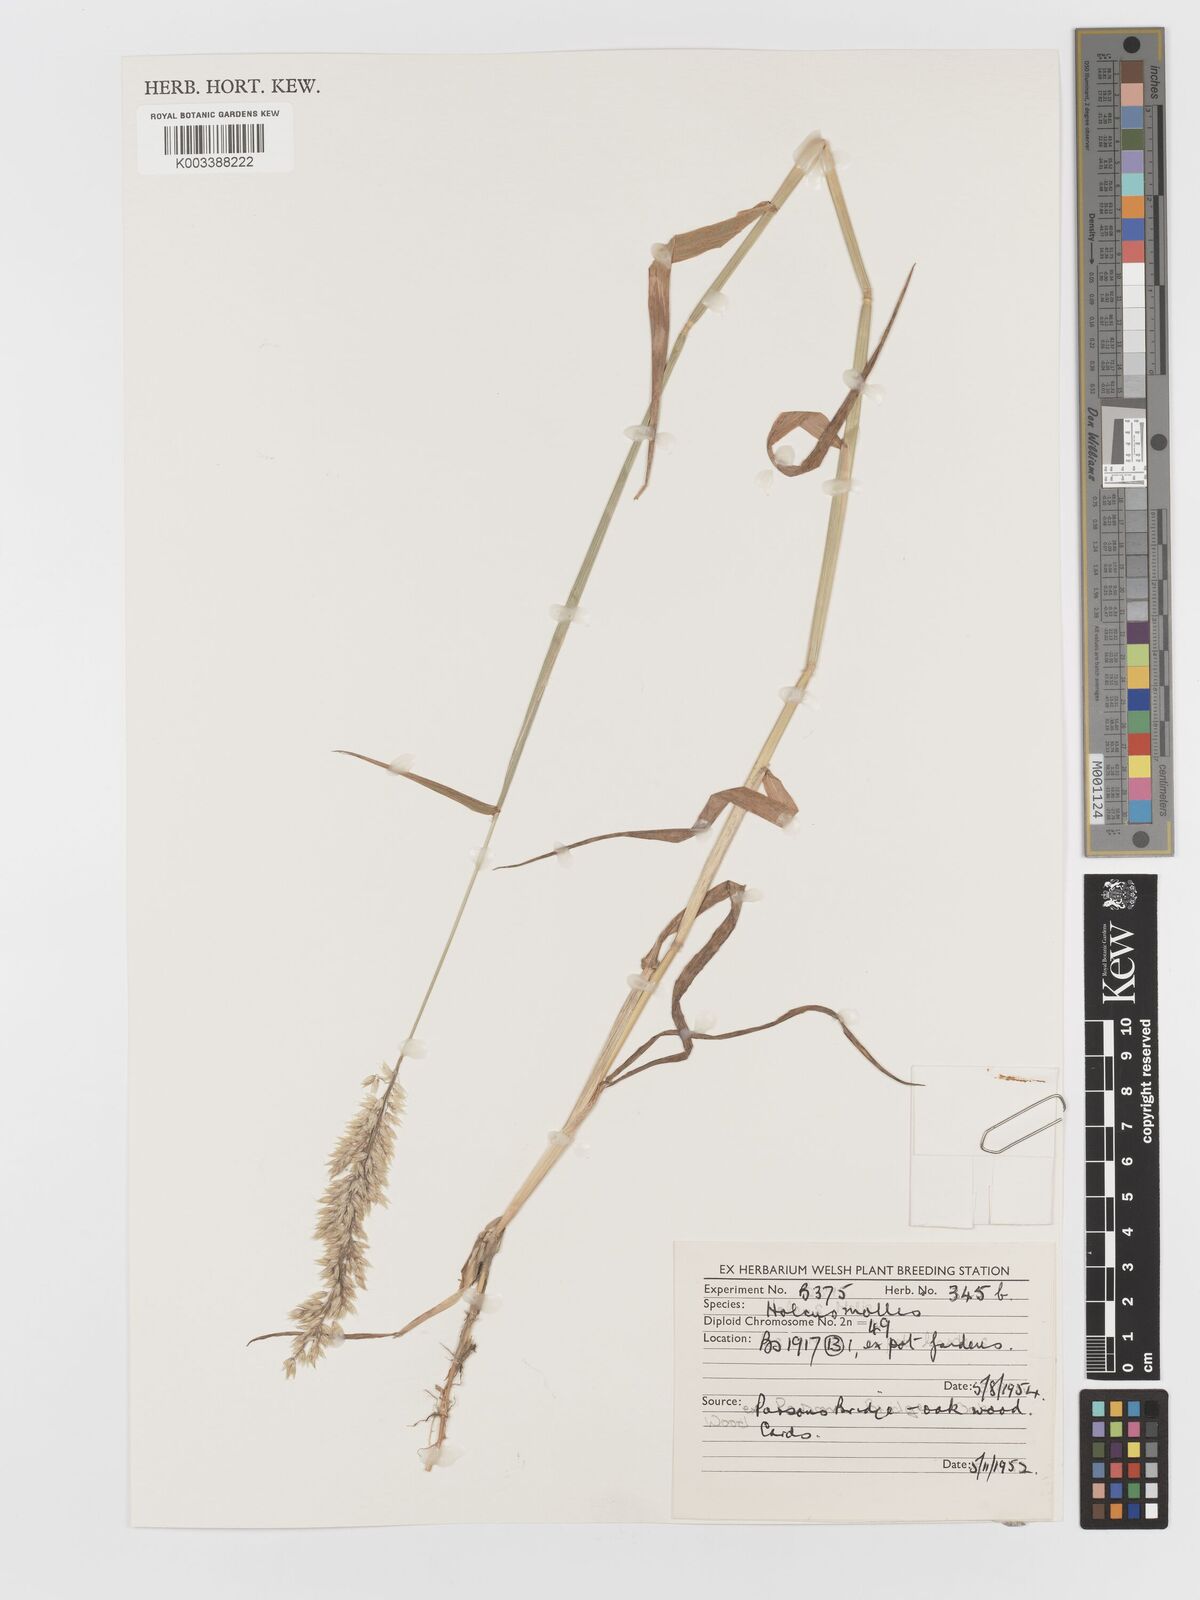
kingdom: Plantae
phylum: Tracheophyta
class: Liliopsida
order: Poales
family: Poaceae
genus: Holcus
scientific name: Holcus mollis
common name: Creeping velvetgrass
